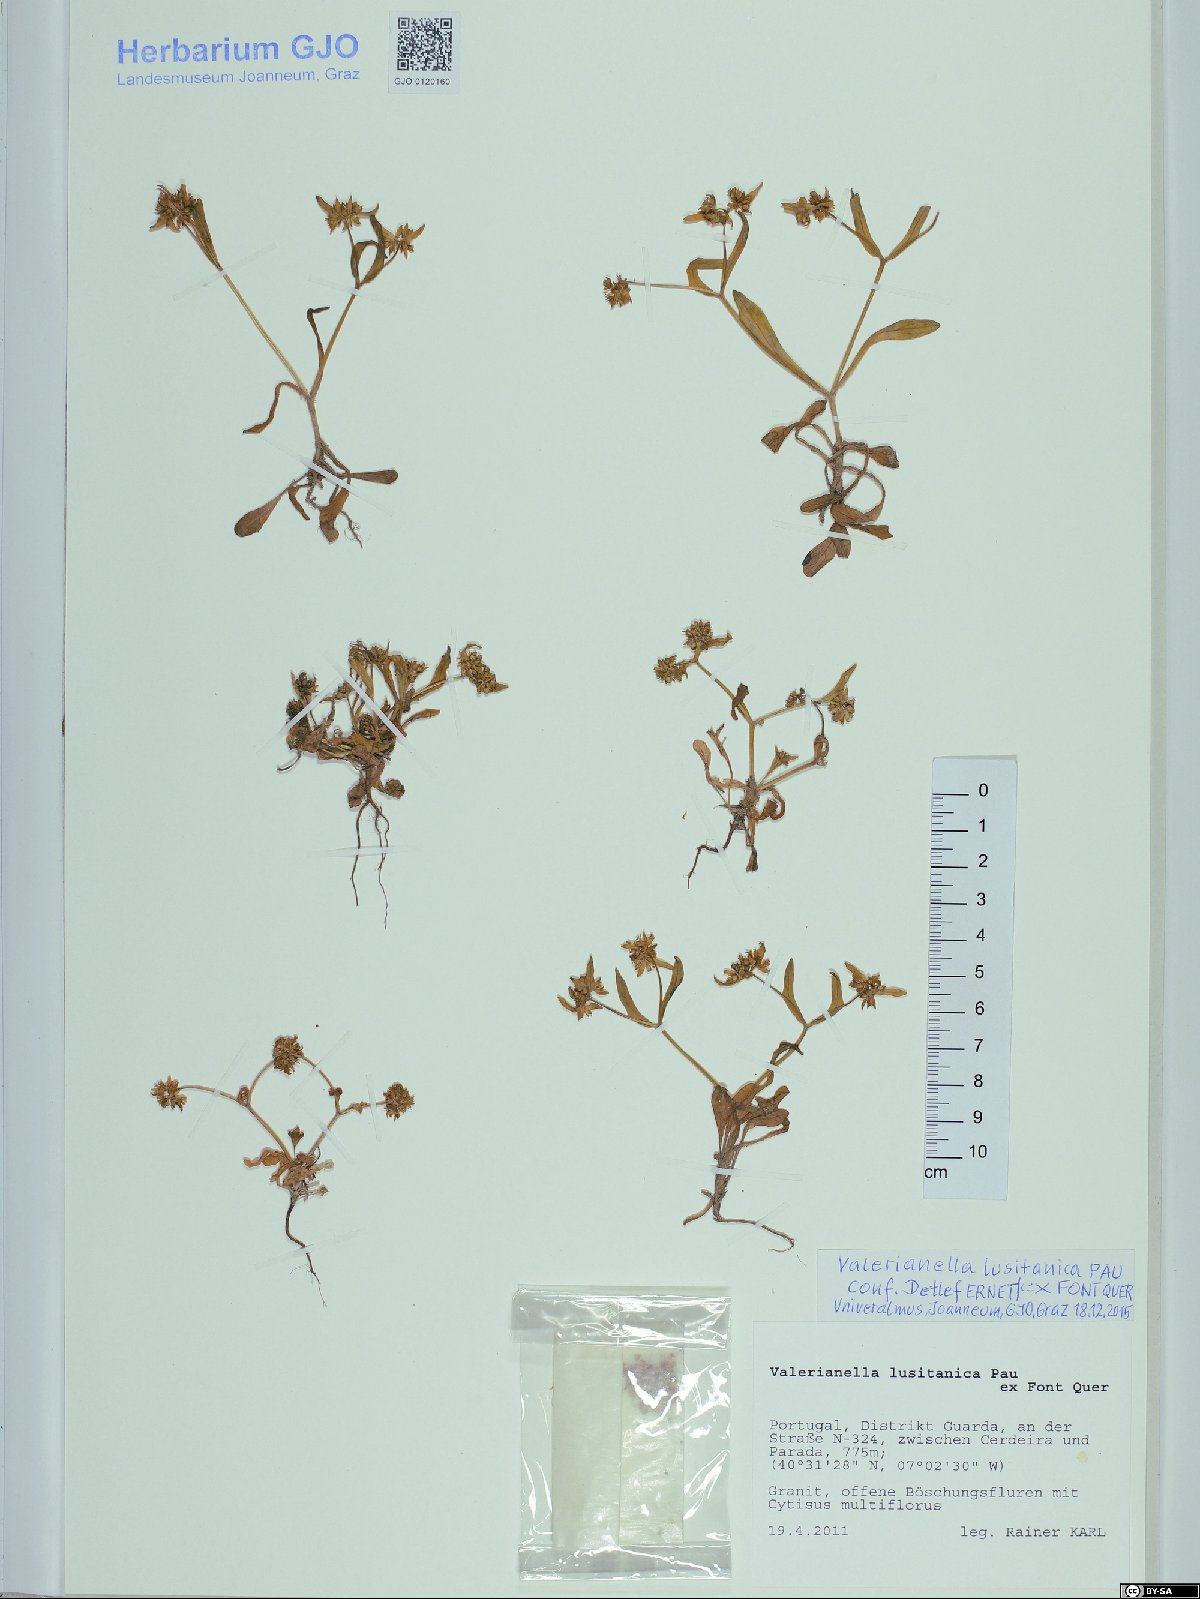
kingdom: Plantae
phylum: Tracheophyta
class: Magnoliopsida
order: Dipsacales
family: Caprifoliaceae
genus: Valerianella
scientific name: Valerianella locusta
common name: Common cornsalad
